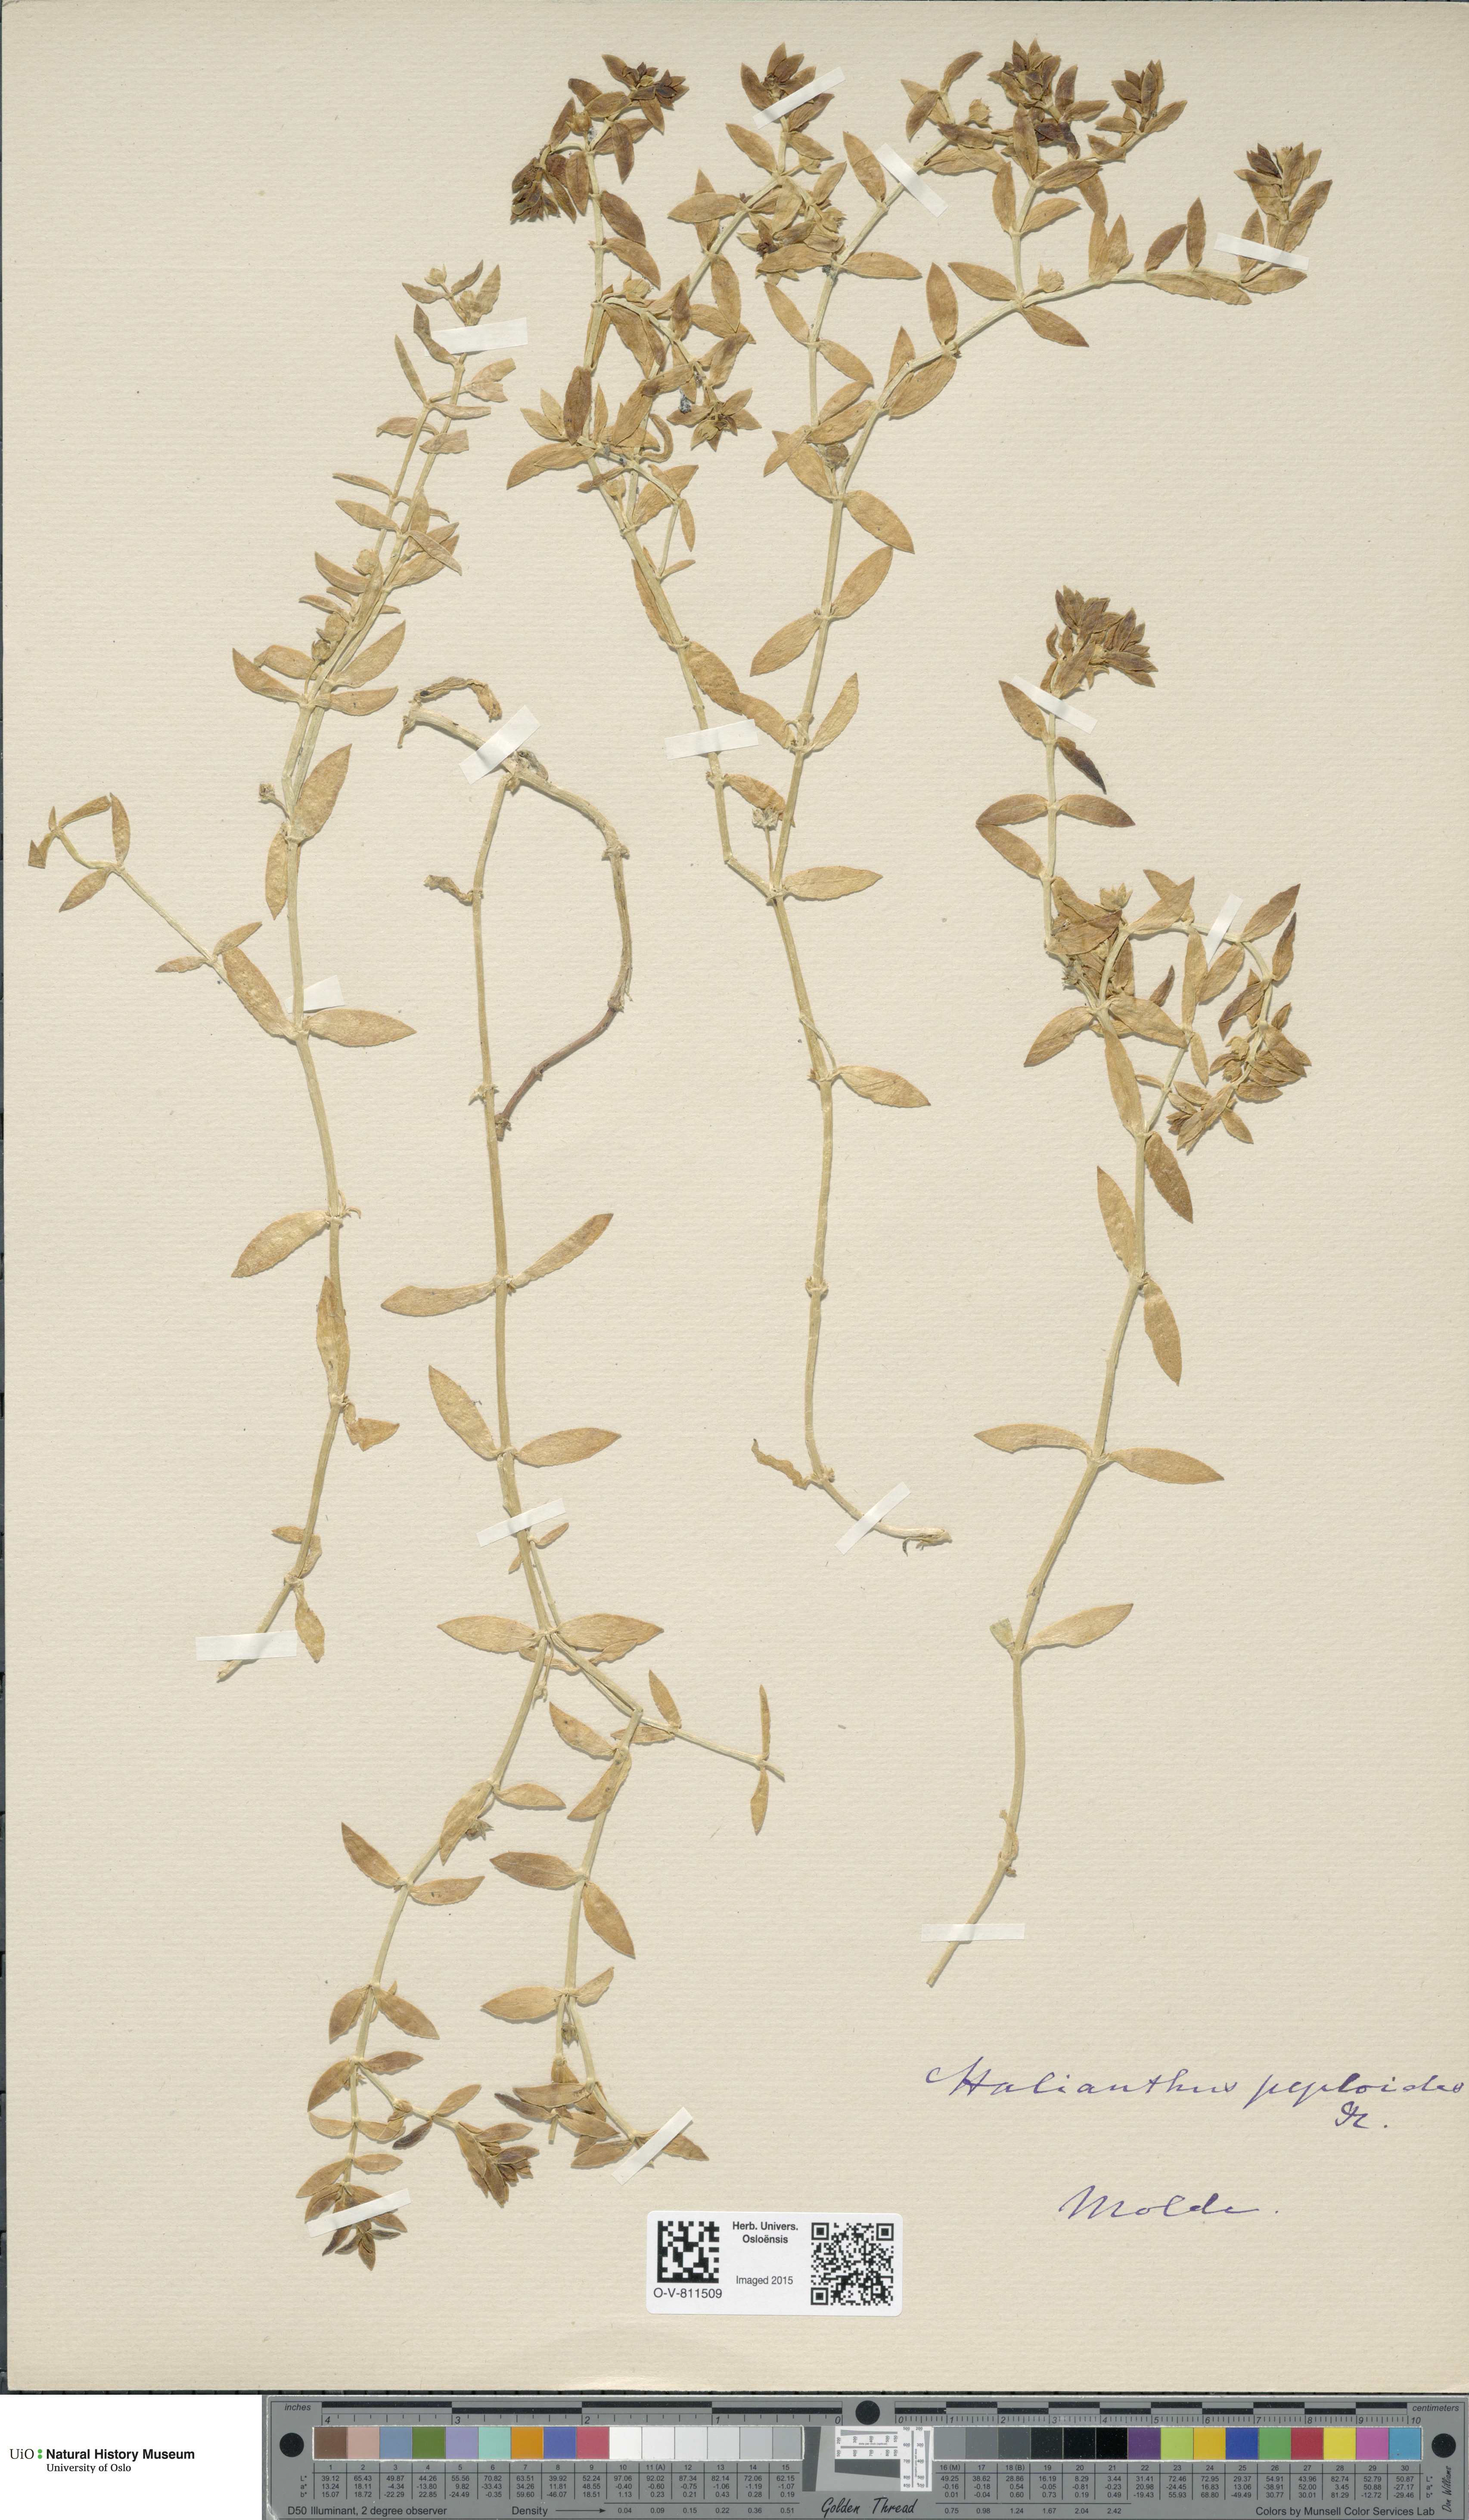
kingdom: Plantae
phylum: Tracheophyta
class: Magnoliopsida
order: Caryophyllales
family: Caryophyllaceae
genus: Honckenya
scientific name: Honckenya peploides
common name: Sea sandwort
